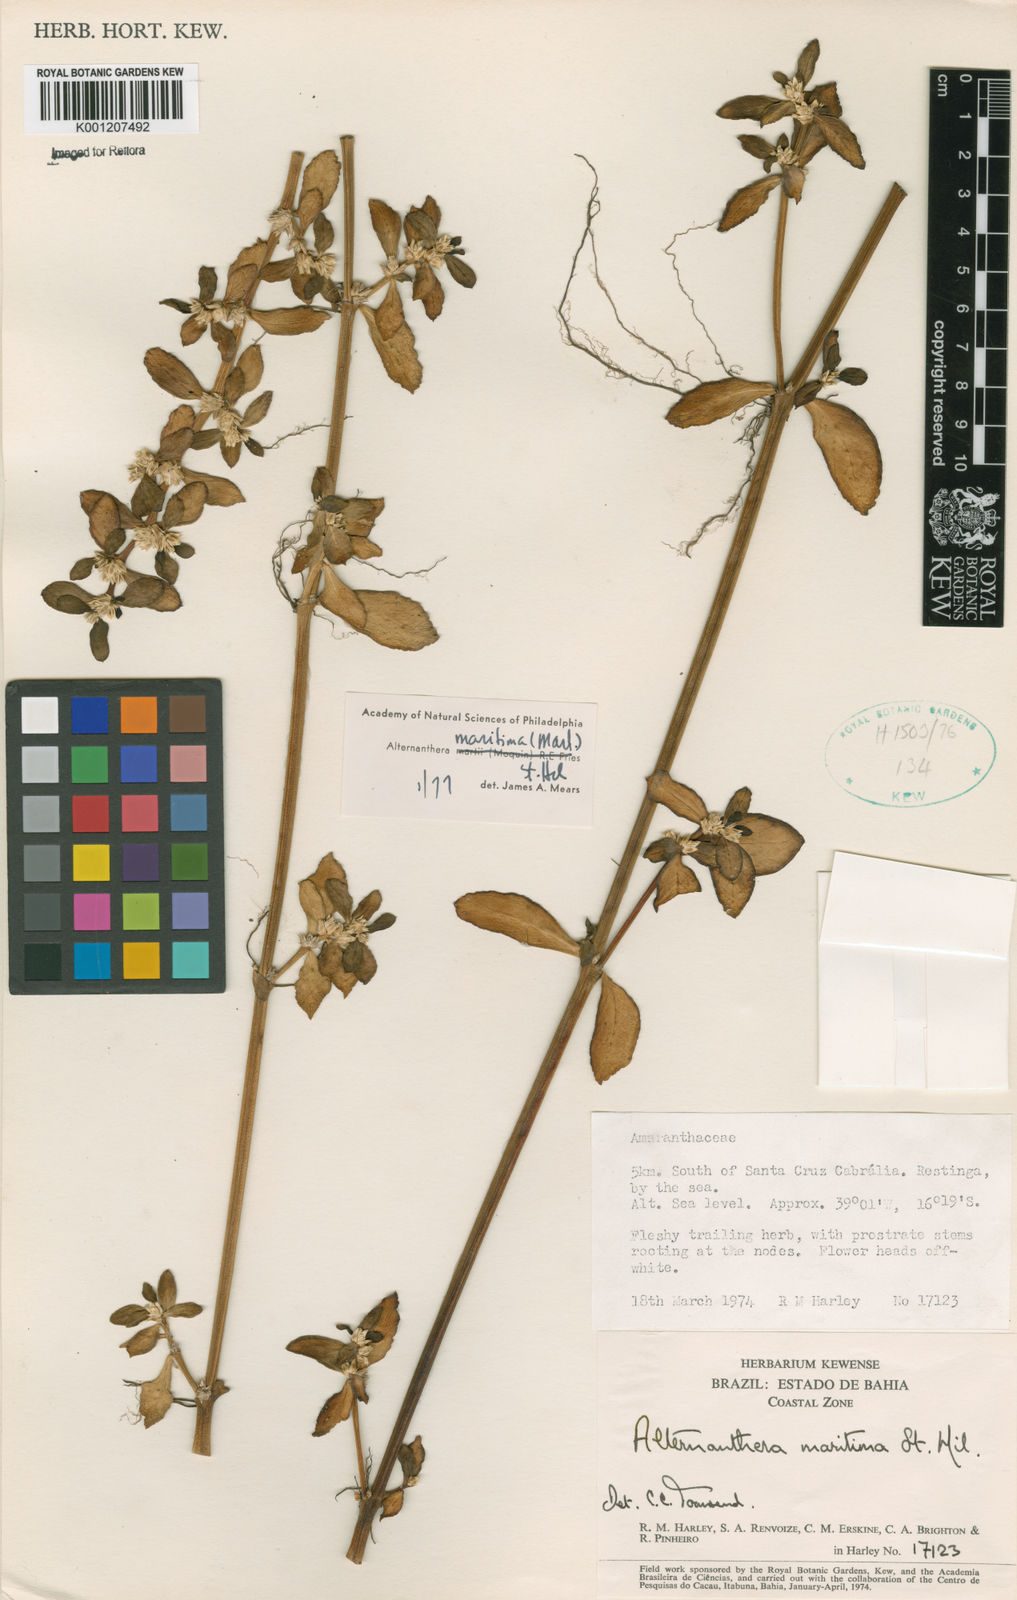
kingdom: Plantae
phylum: Tracheophyta
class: Magnoliopsida
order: Caryophyllales
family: Amaranthaceae
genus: Alternanthera
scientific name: Alternanthera littoralis
